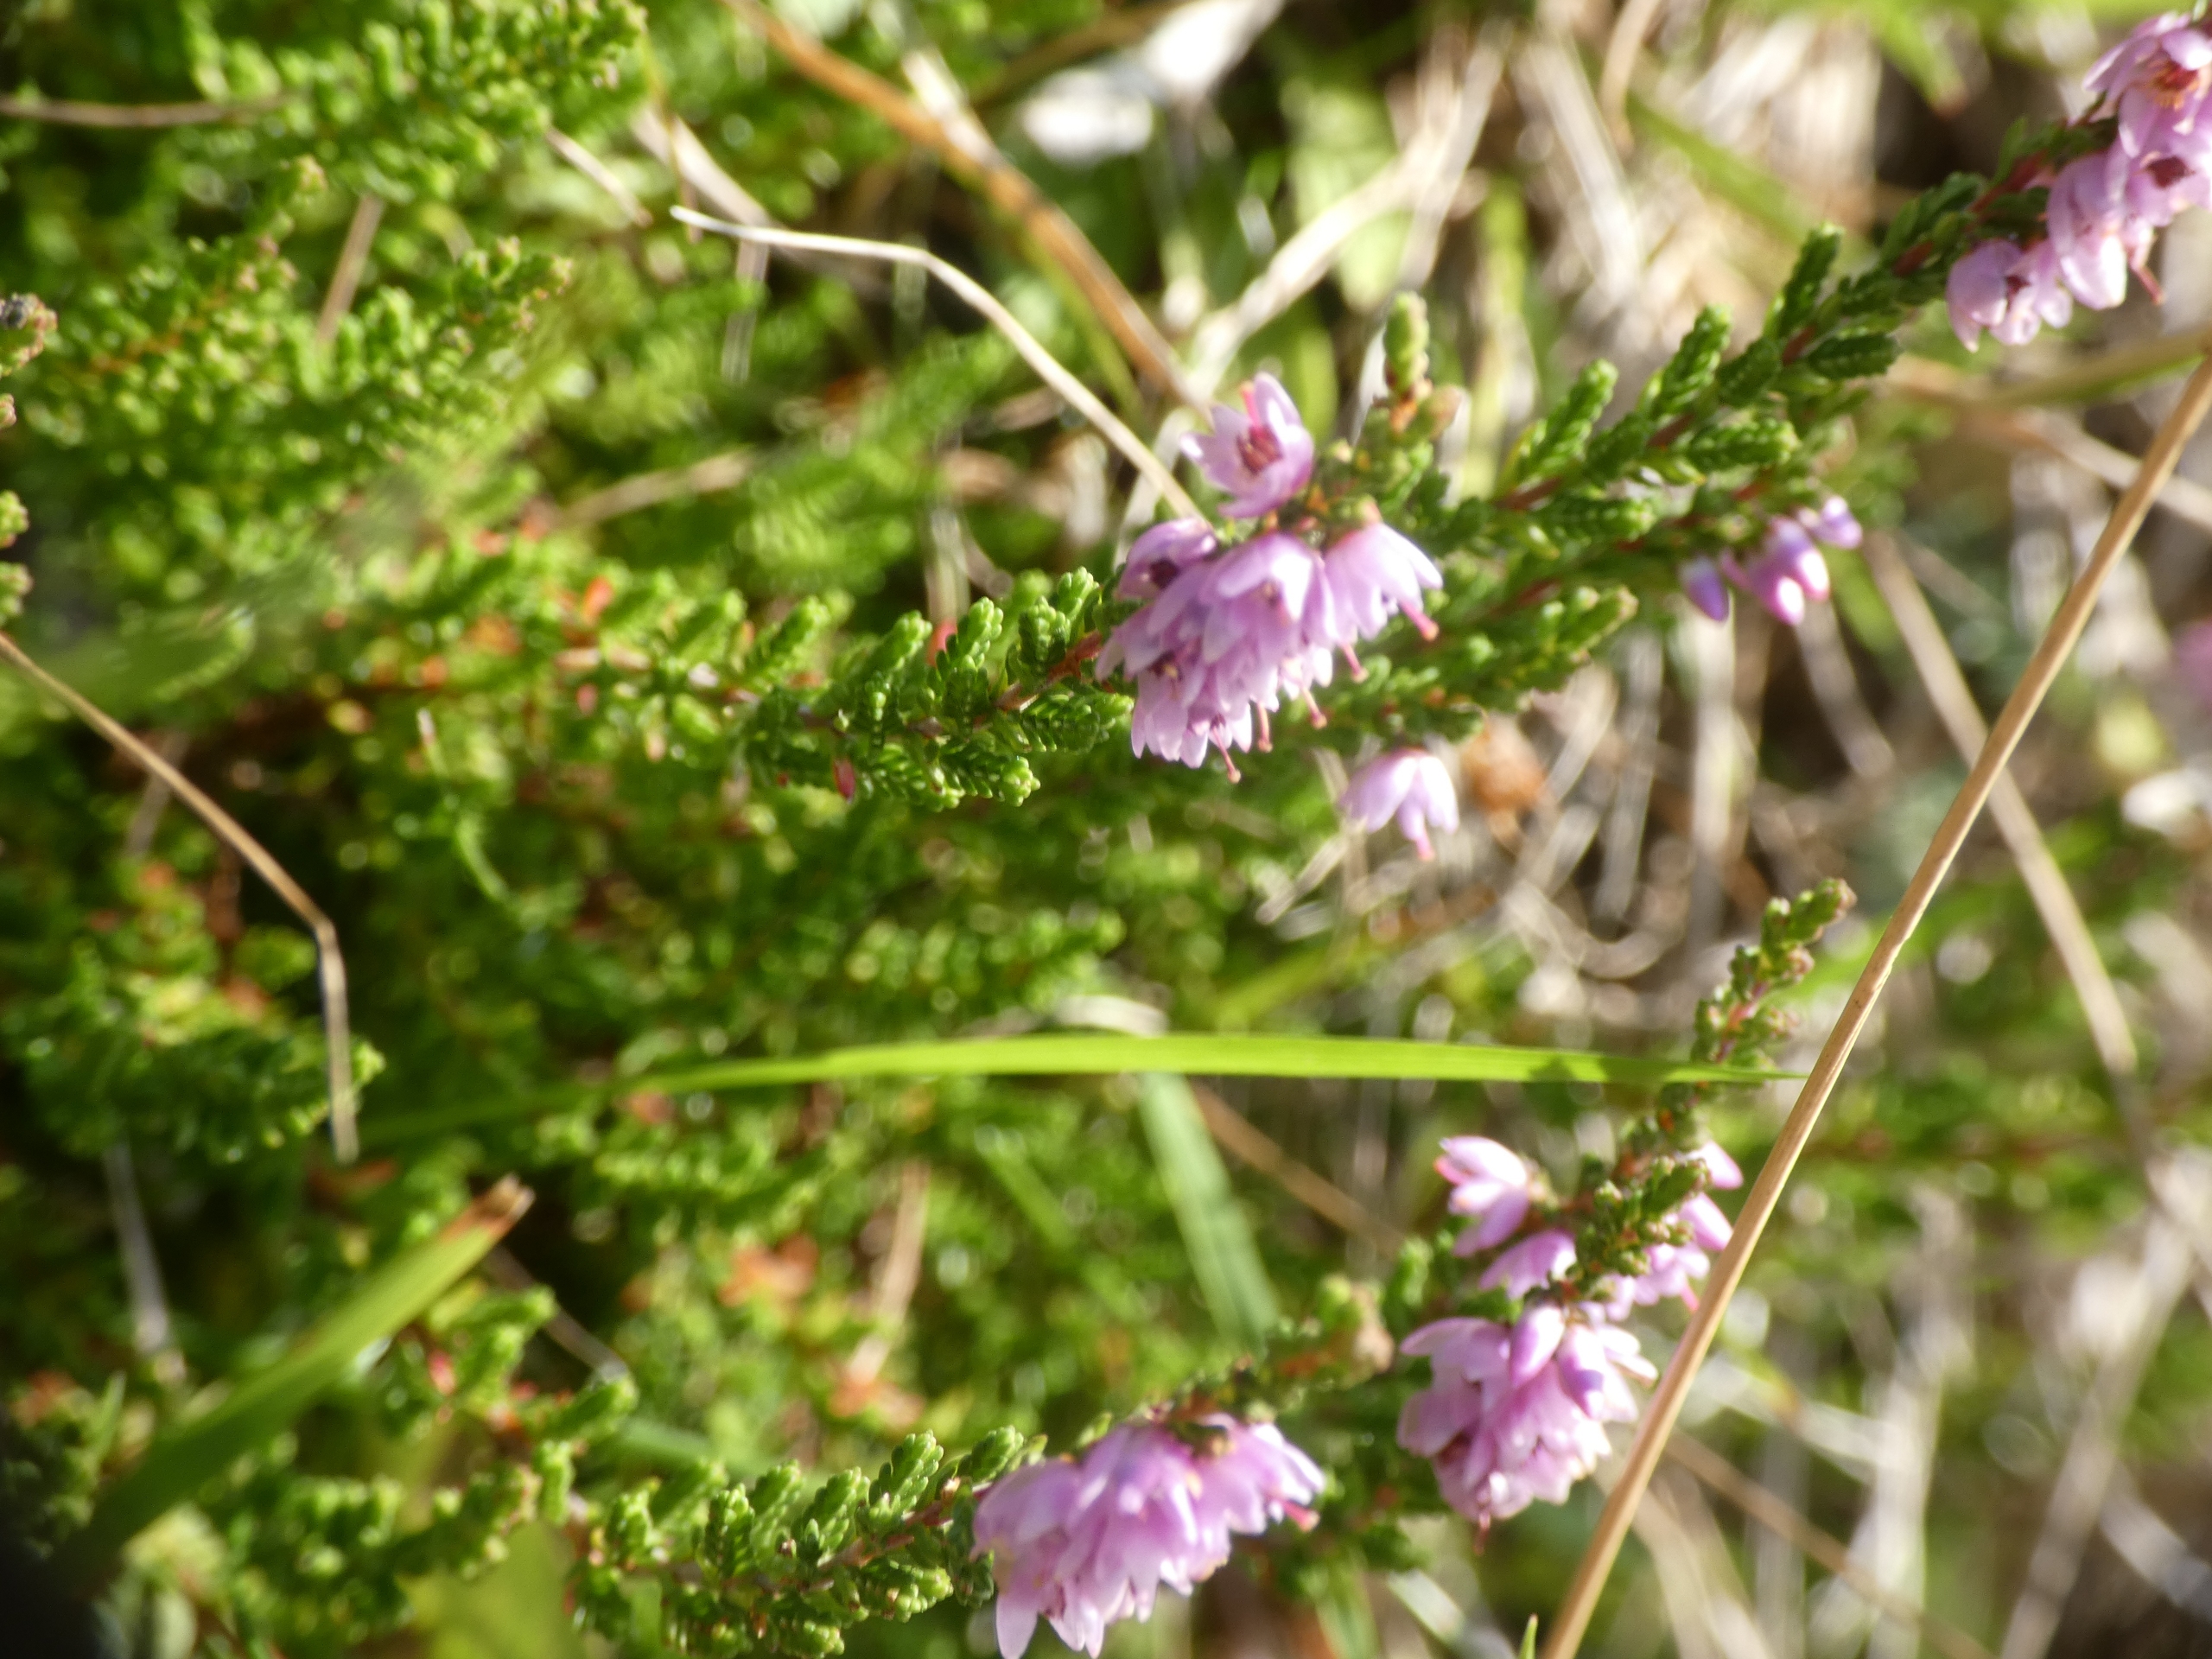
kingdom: Plantae
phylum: Tracheophyta
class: Magnoliopsida
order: Ericales
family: Ericaceae
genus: Calluna
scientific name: Calluna vulgaris
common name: Hedelyng
